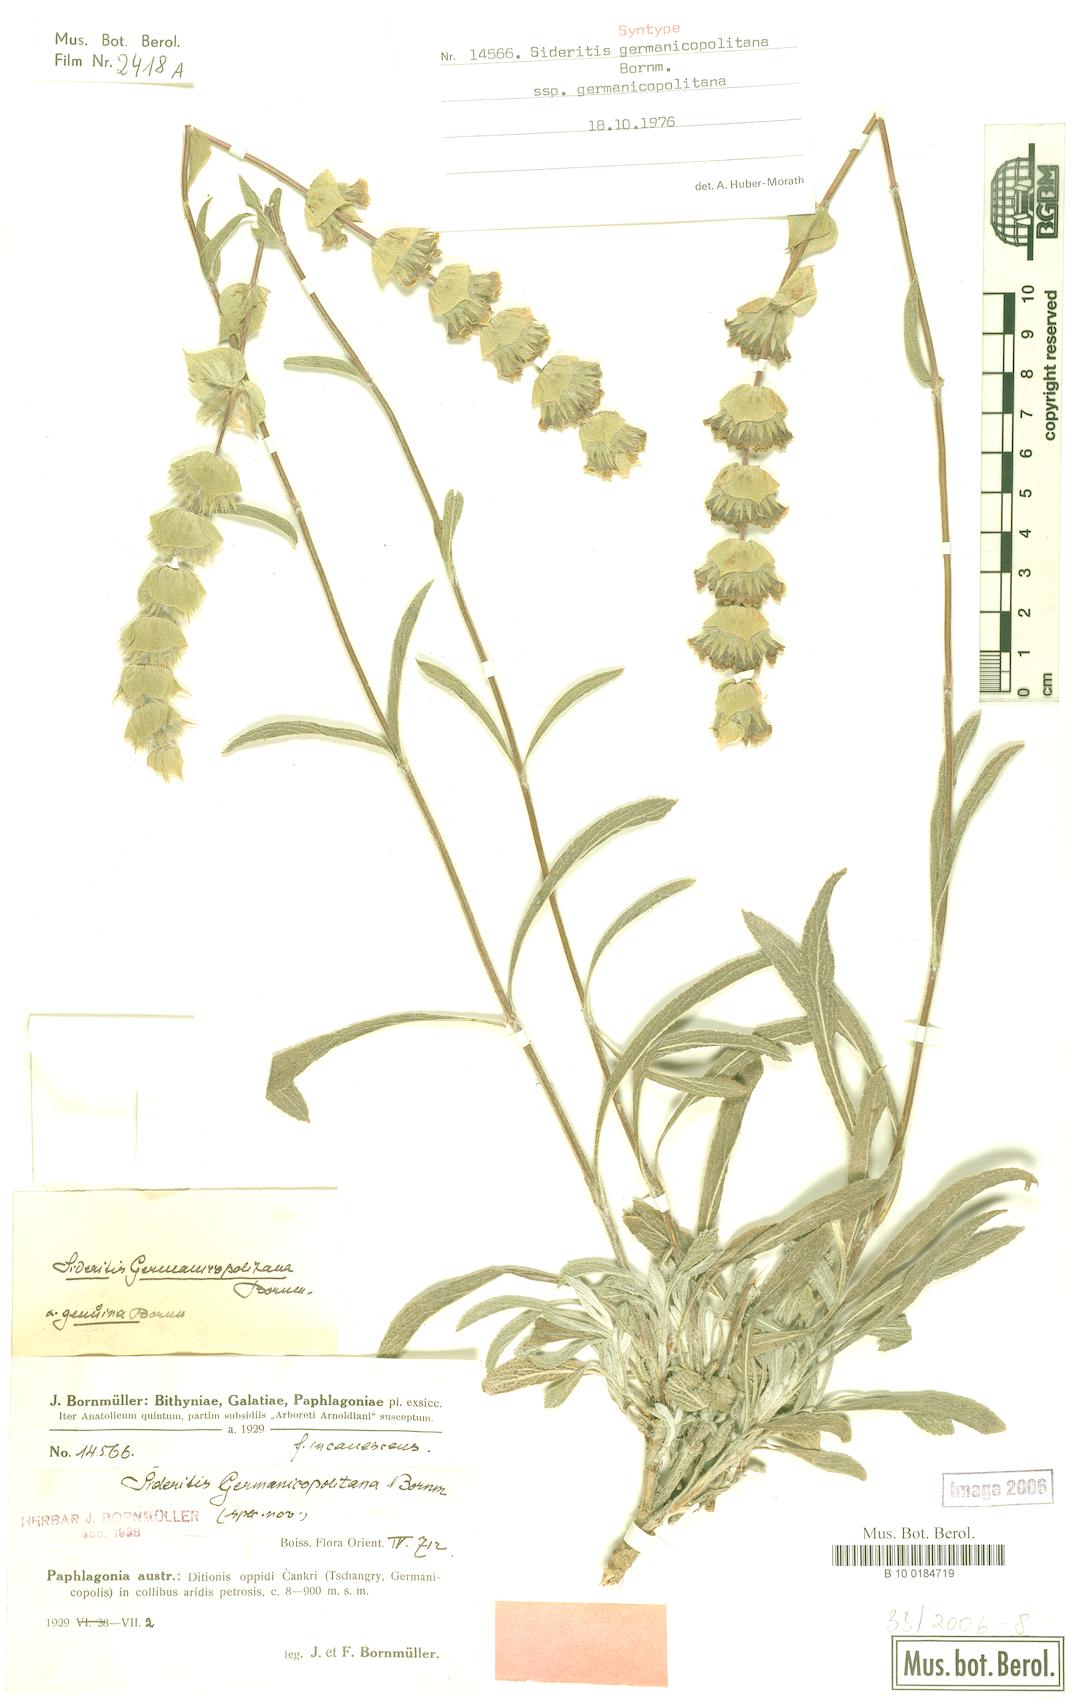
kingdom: Plantae
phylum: Tracheophyta
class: Magnoliopsida
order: Lamiales
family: Lamiaceae
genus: Sideritis
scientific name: Sideritis germanicopolitana
